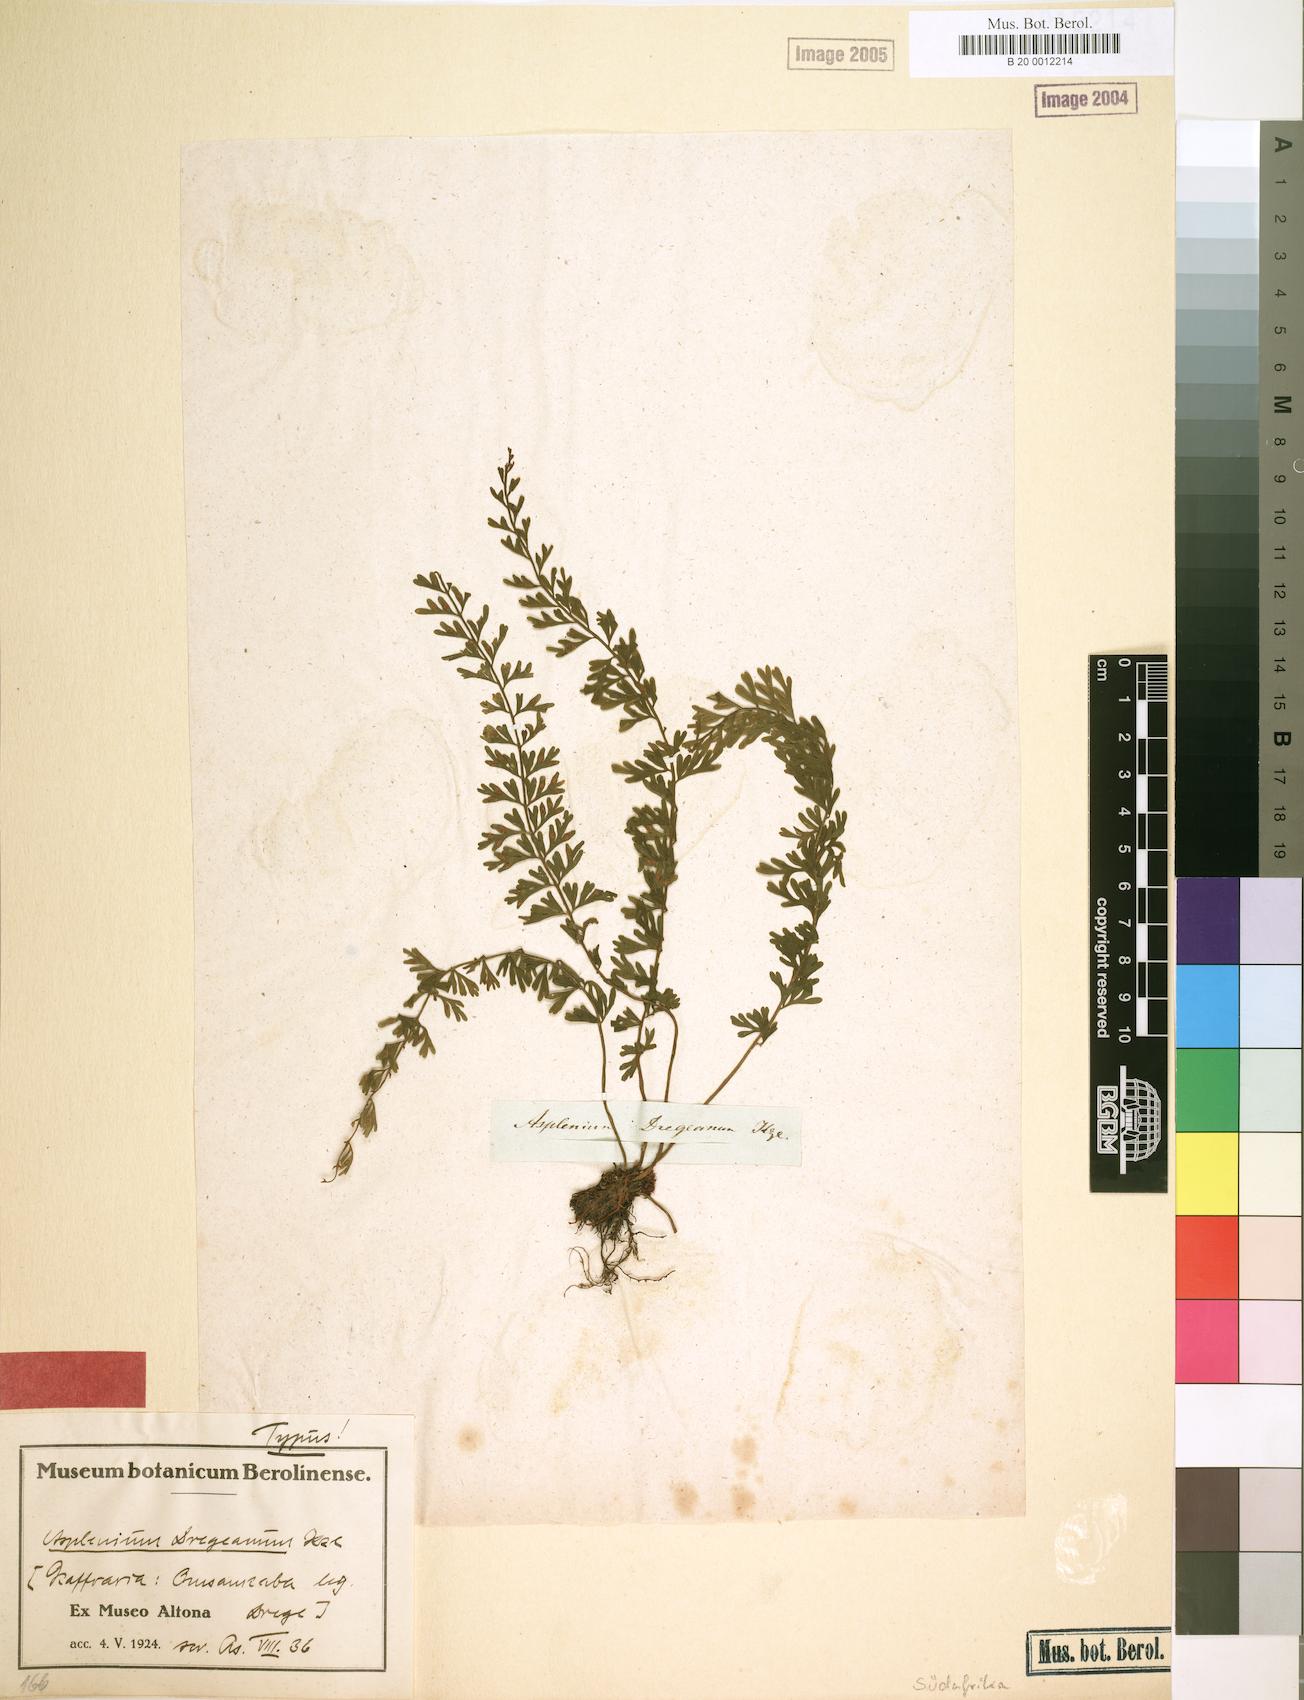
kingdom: Plantae
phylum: Tracheophyta
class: Polypodiopsida
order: Polypodiales
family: Aspleniaceae
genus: Asplenium
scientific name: Asplenium dregeanum
